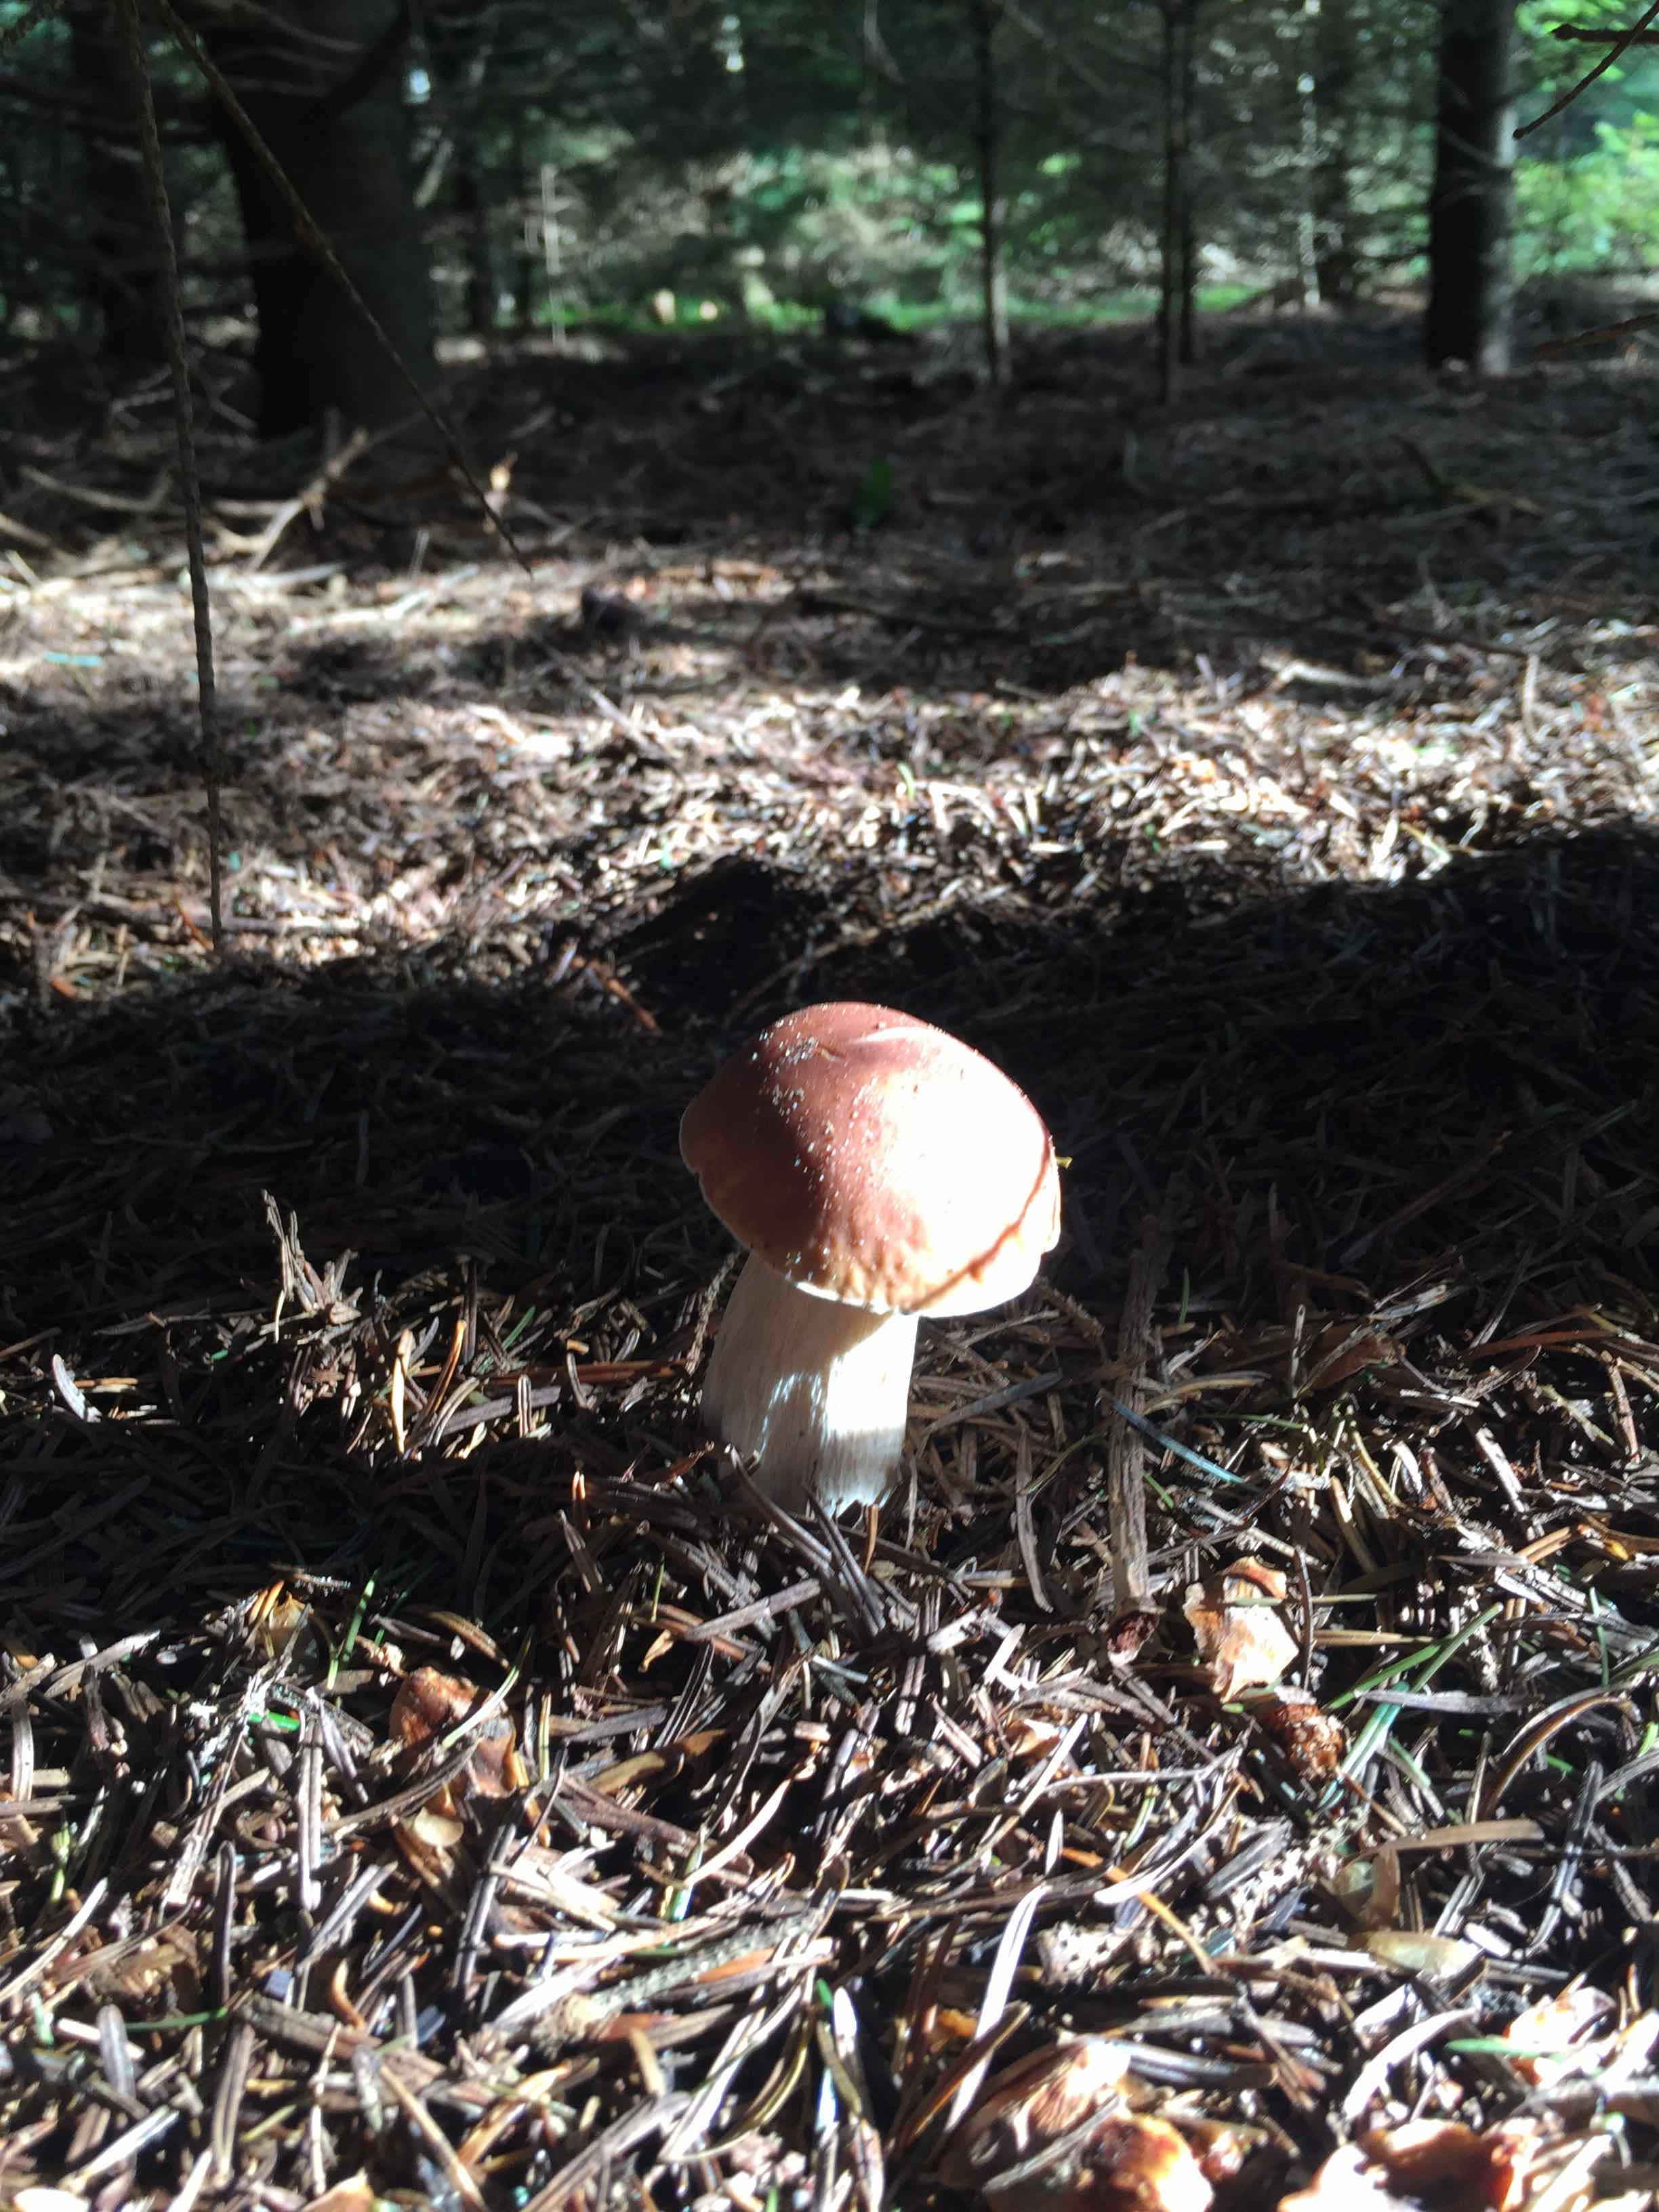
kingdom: Fungi
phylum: Basidiomycota
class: Agaricomycetes
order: Boletales
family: Boletaceae
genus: Boletus
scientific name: Boletus edulis
